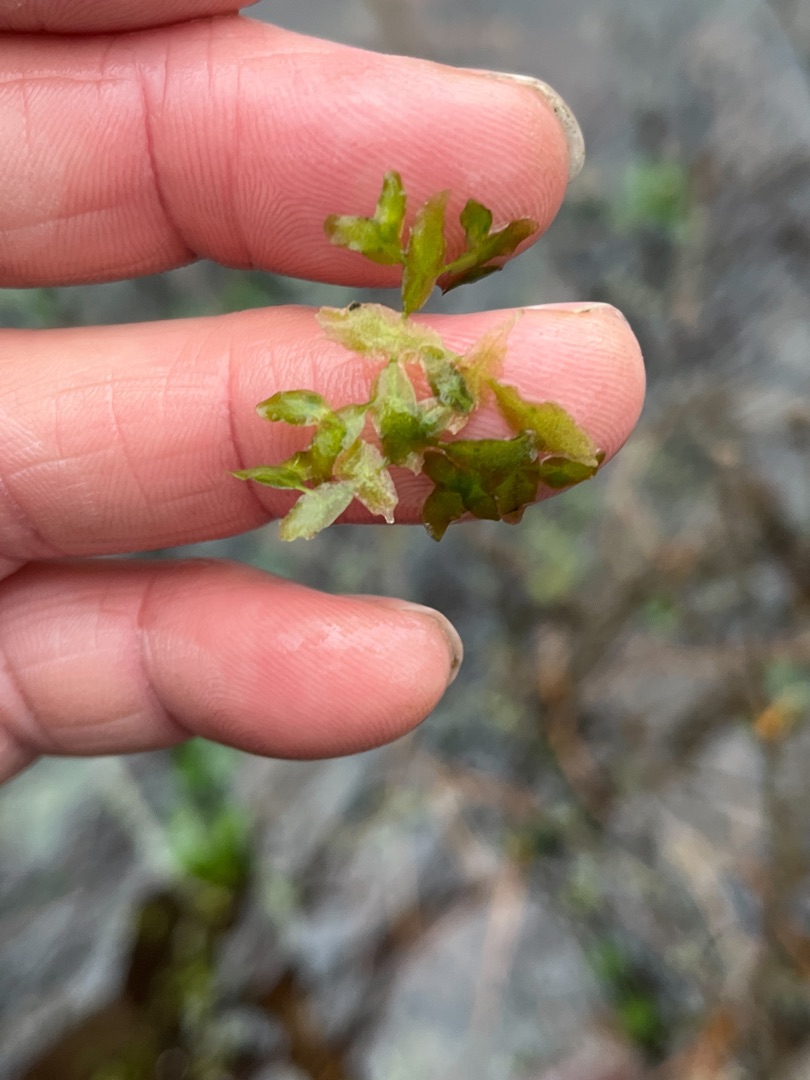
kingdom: Plantae
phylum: Tracheophyta
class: Liliopsida
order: Alismatales
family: Araceae
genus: Lemna
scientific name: Lemna trisulca
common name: Kors-andemad
